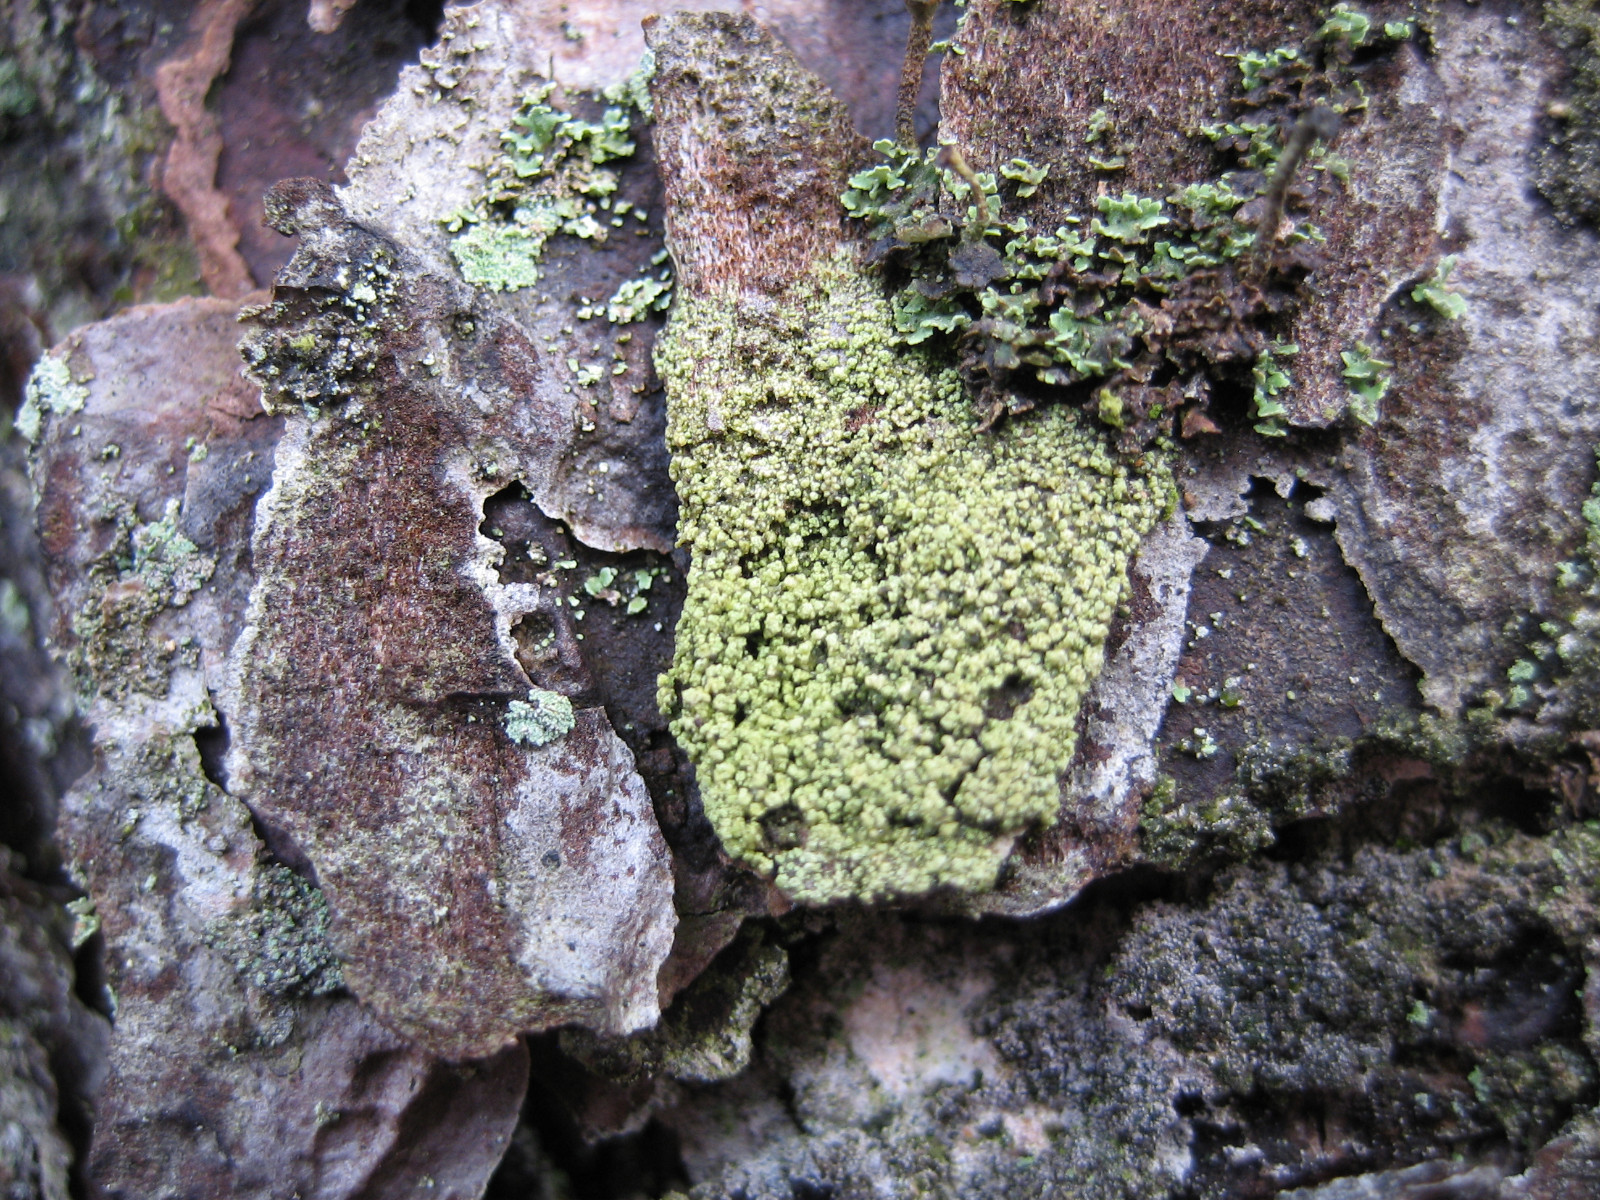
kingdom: Fungi
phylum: Ascomycota
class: Lecanoromycetes
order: Lecanorales
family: Lecanoraceae
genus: Straminella
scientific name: Straminella conizaeoides
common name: by-kantskivelav
